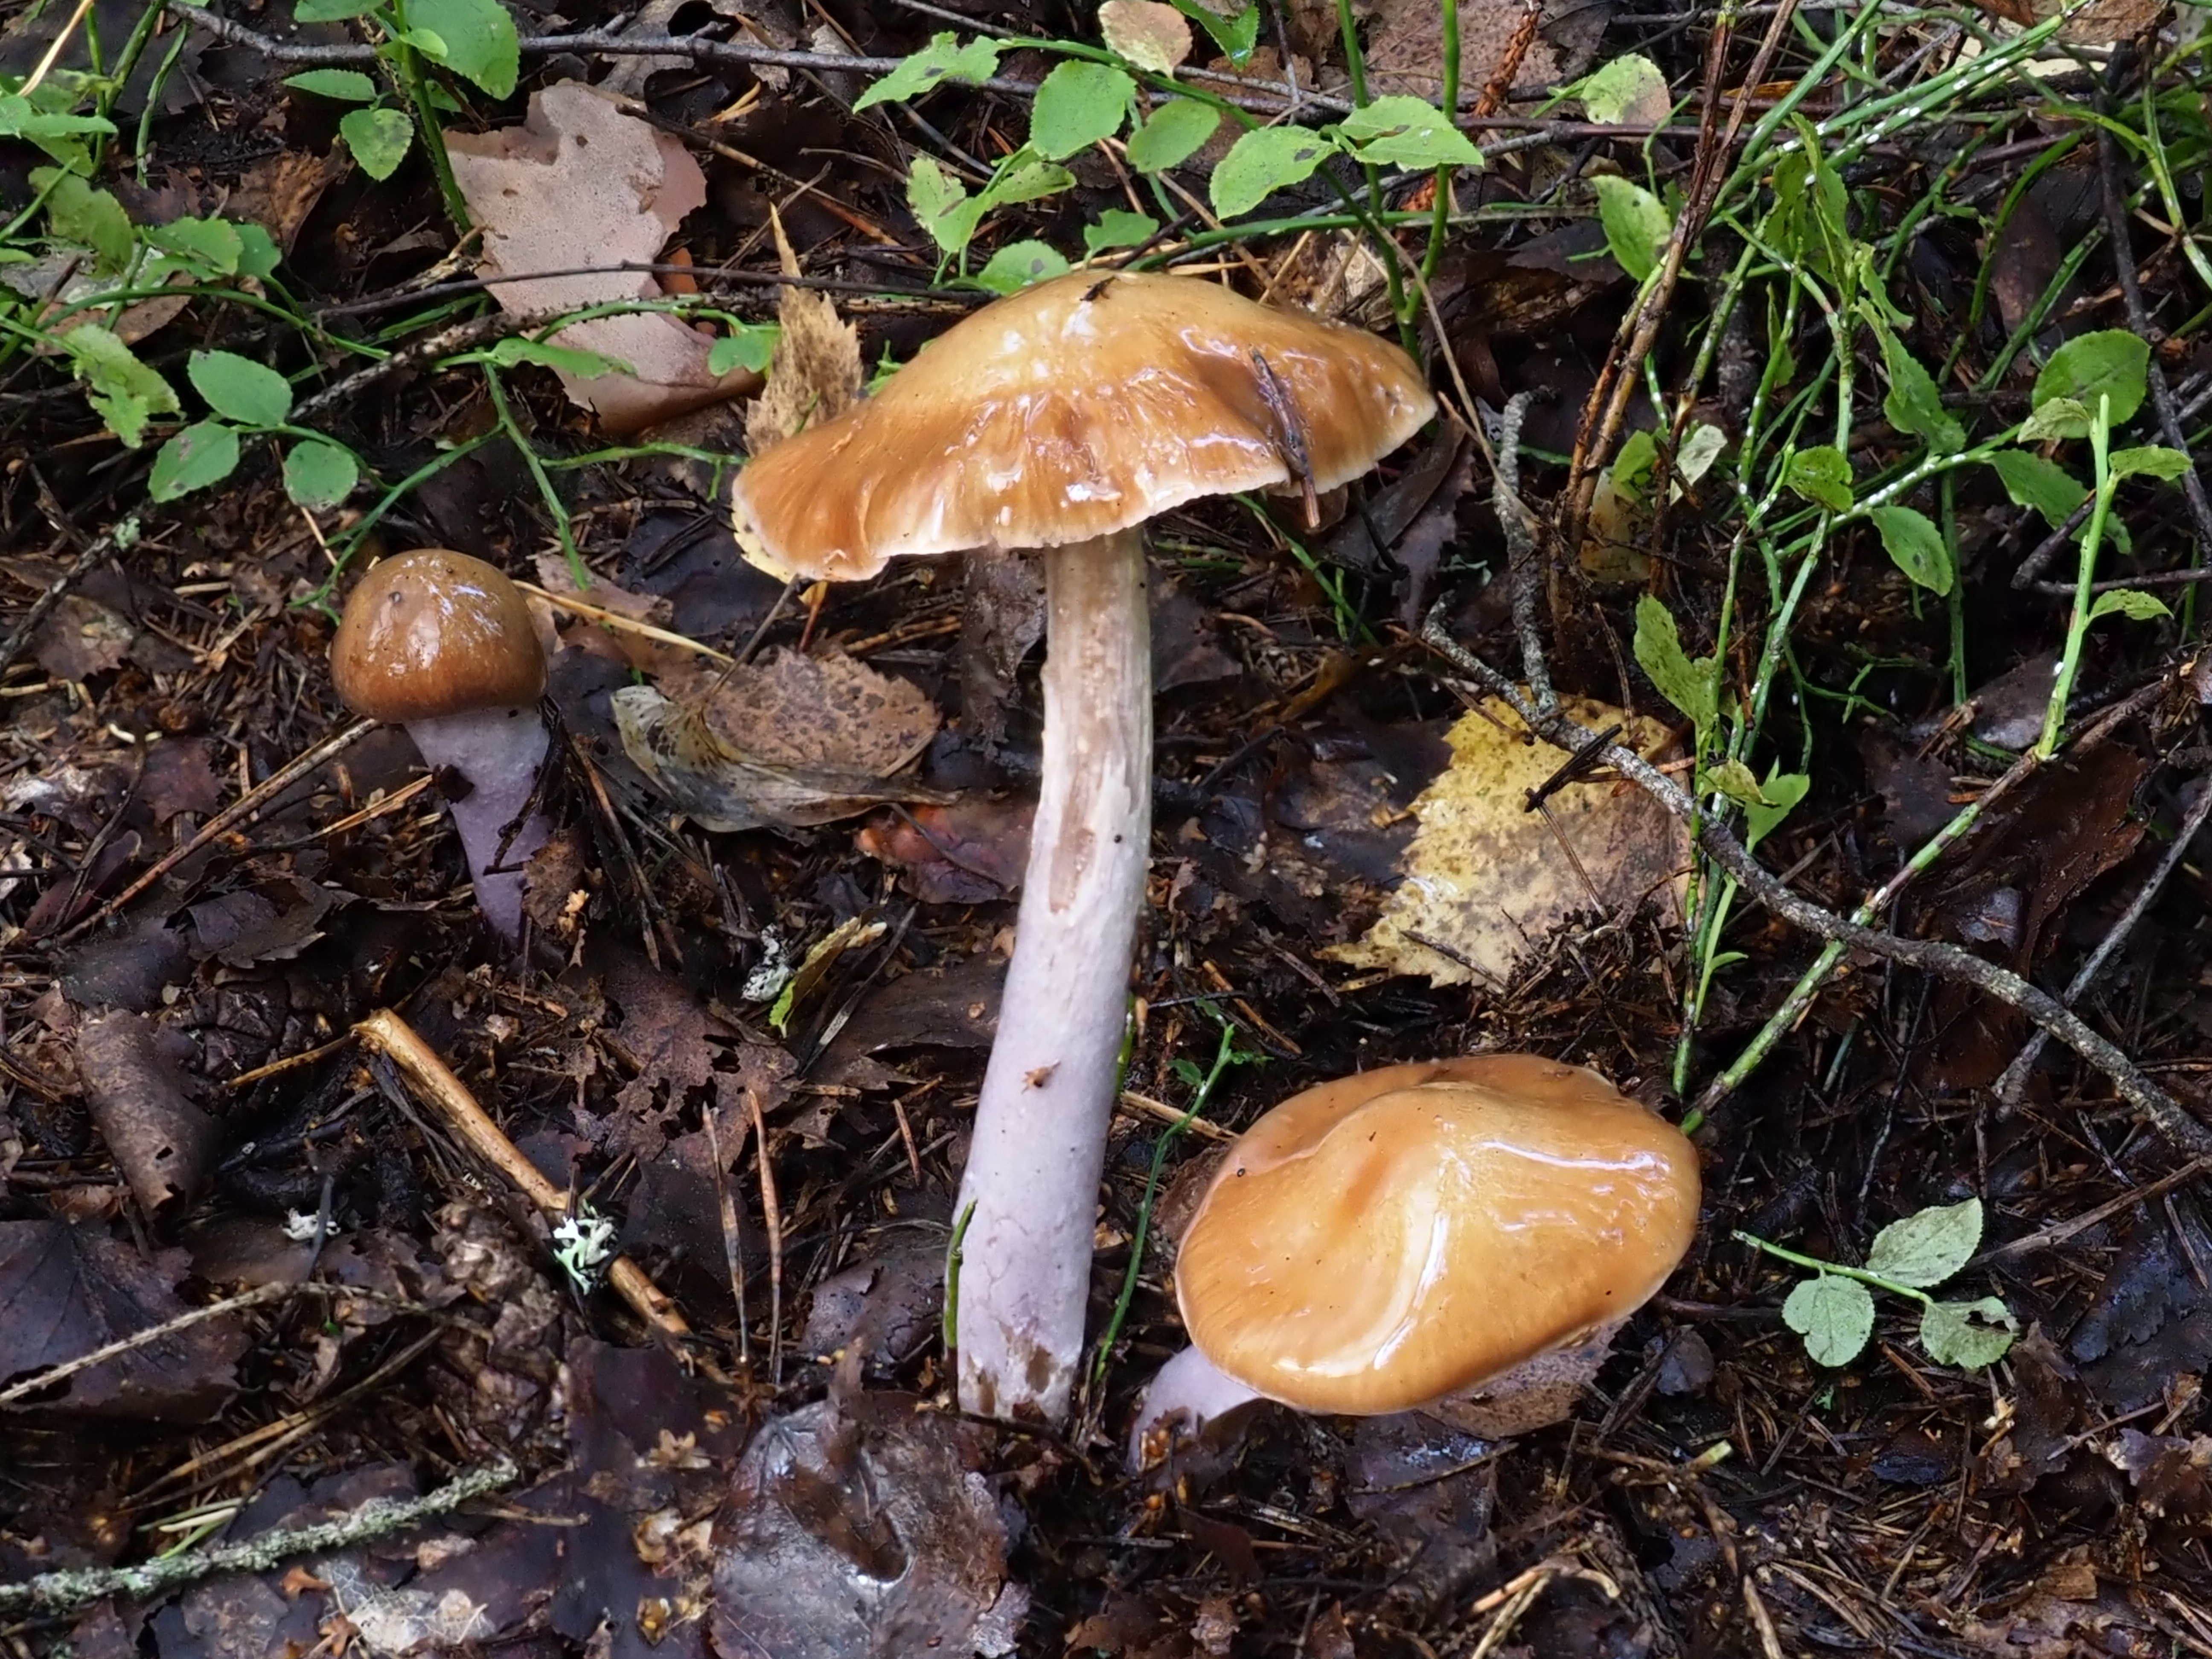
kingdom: Fungi
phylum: Basidiomycota
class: Agaricomycetes
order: Agaricales
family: Cortinariaceae
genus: Cortinarius
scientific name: Cortinarius stillatitius
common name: Purple stocking webcap
